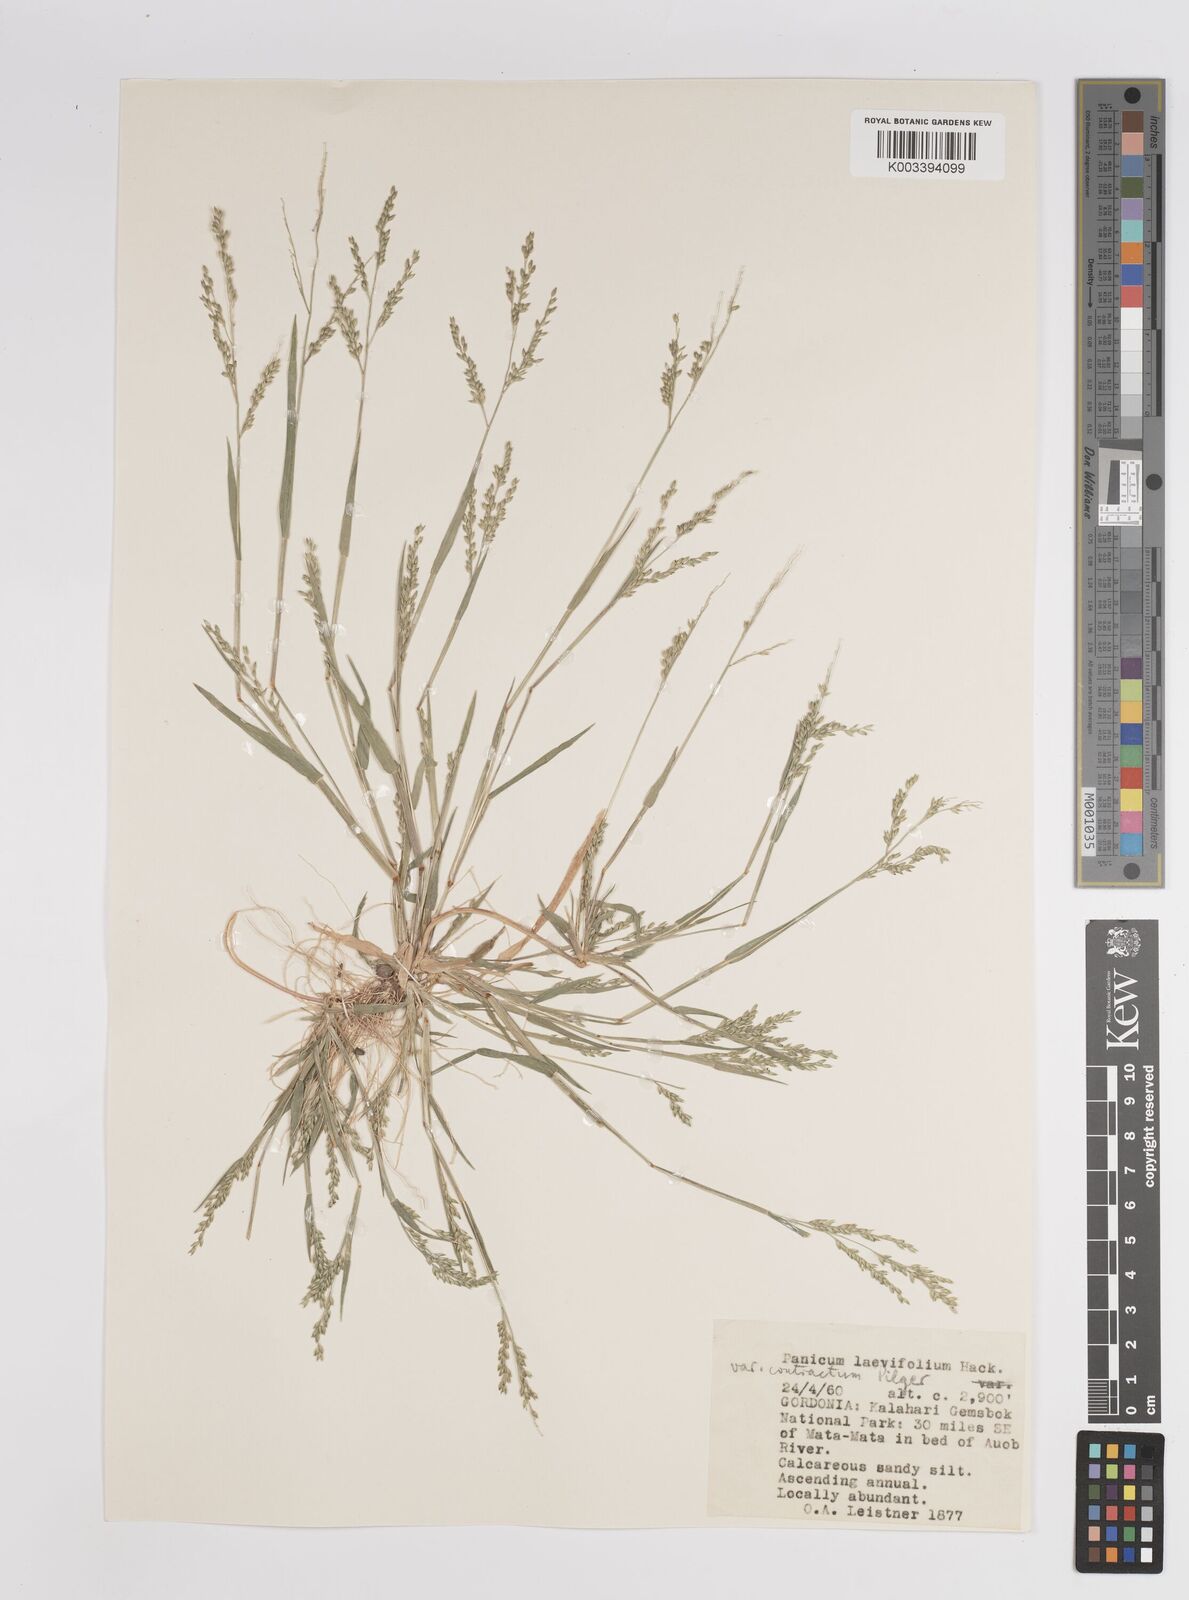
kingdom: Plantae
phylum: Tracheophyta
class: Liliopsida
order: Poales
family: Poaceae
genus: Panicum
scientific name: Panicum impeditum
